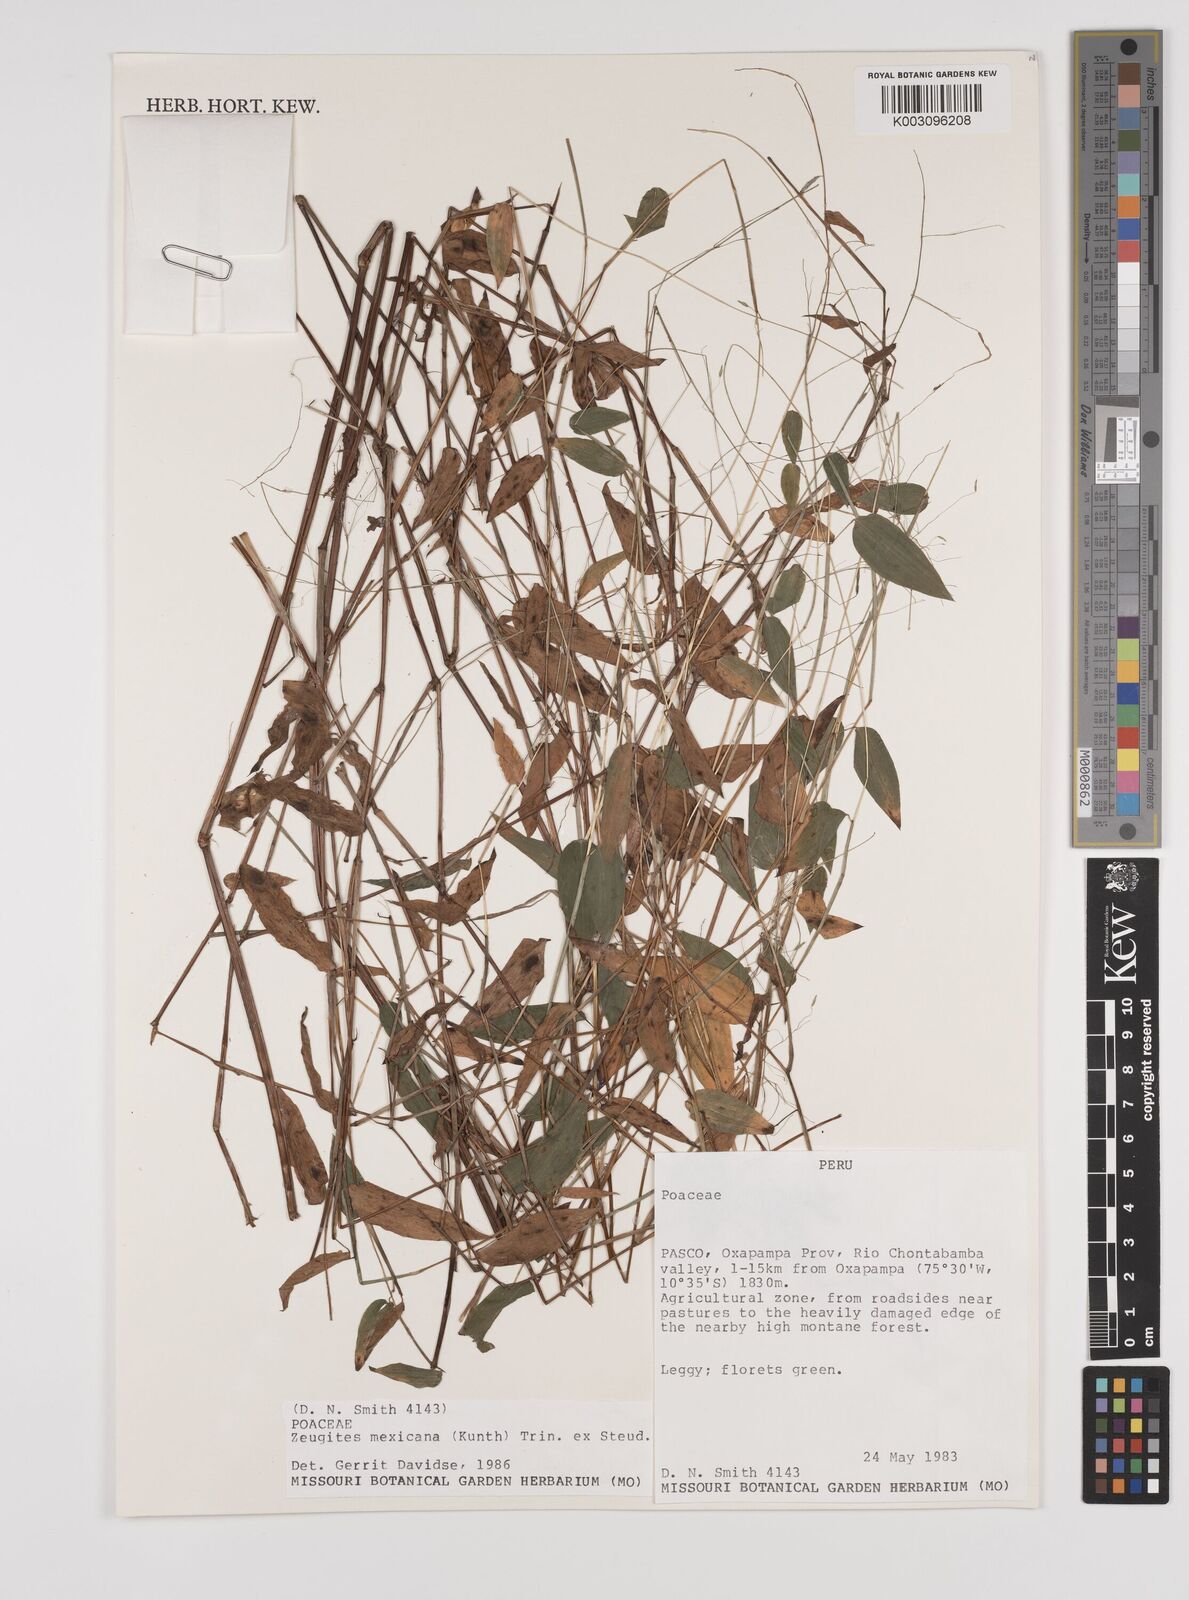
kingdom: Plantae
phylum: Tracheophyta
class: Liliopsida
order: Poales
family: Poaceae
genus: Zeugites
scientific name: Zeugites americanus
